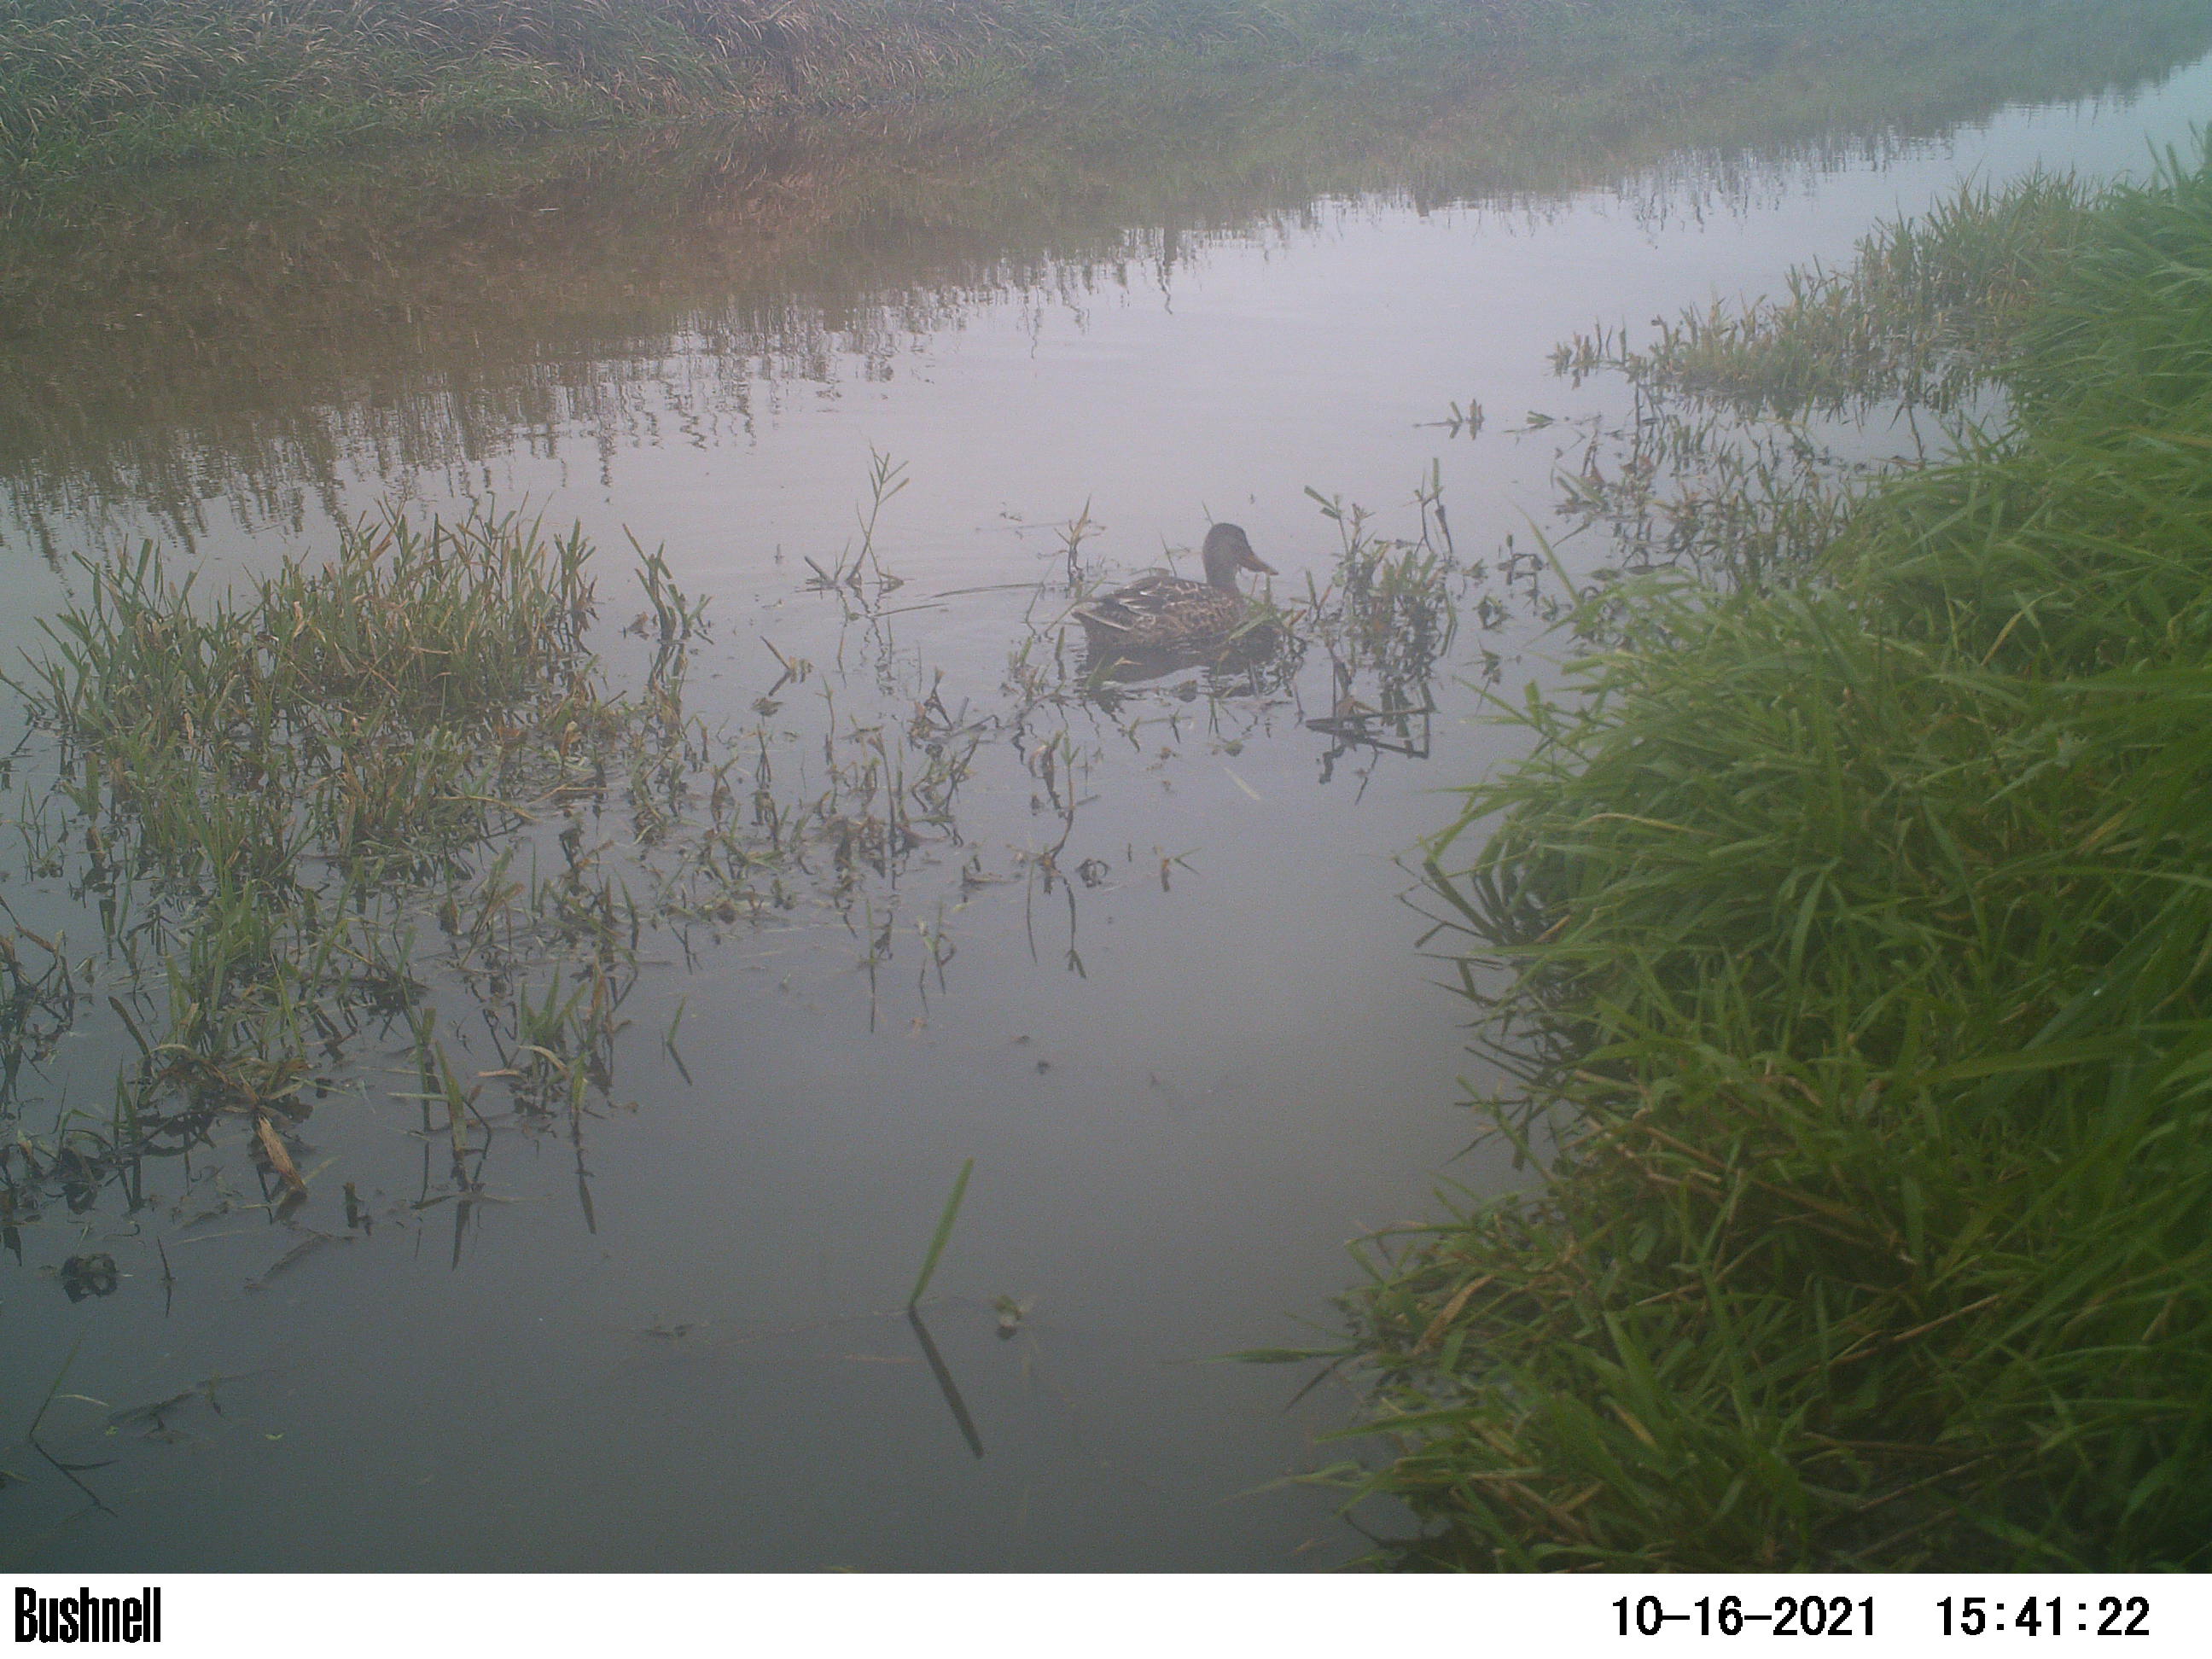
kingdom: Animalia
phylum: Chordata
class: Aves
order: Anseriformes
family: Anatidae
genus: Anas
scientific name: Anas
